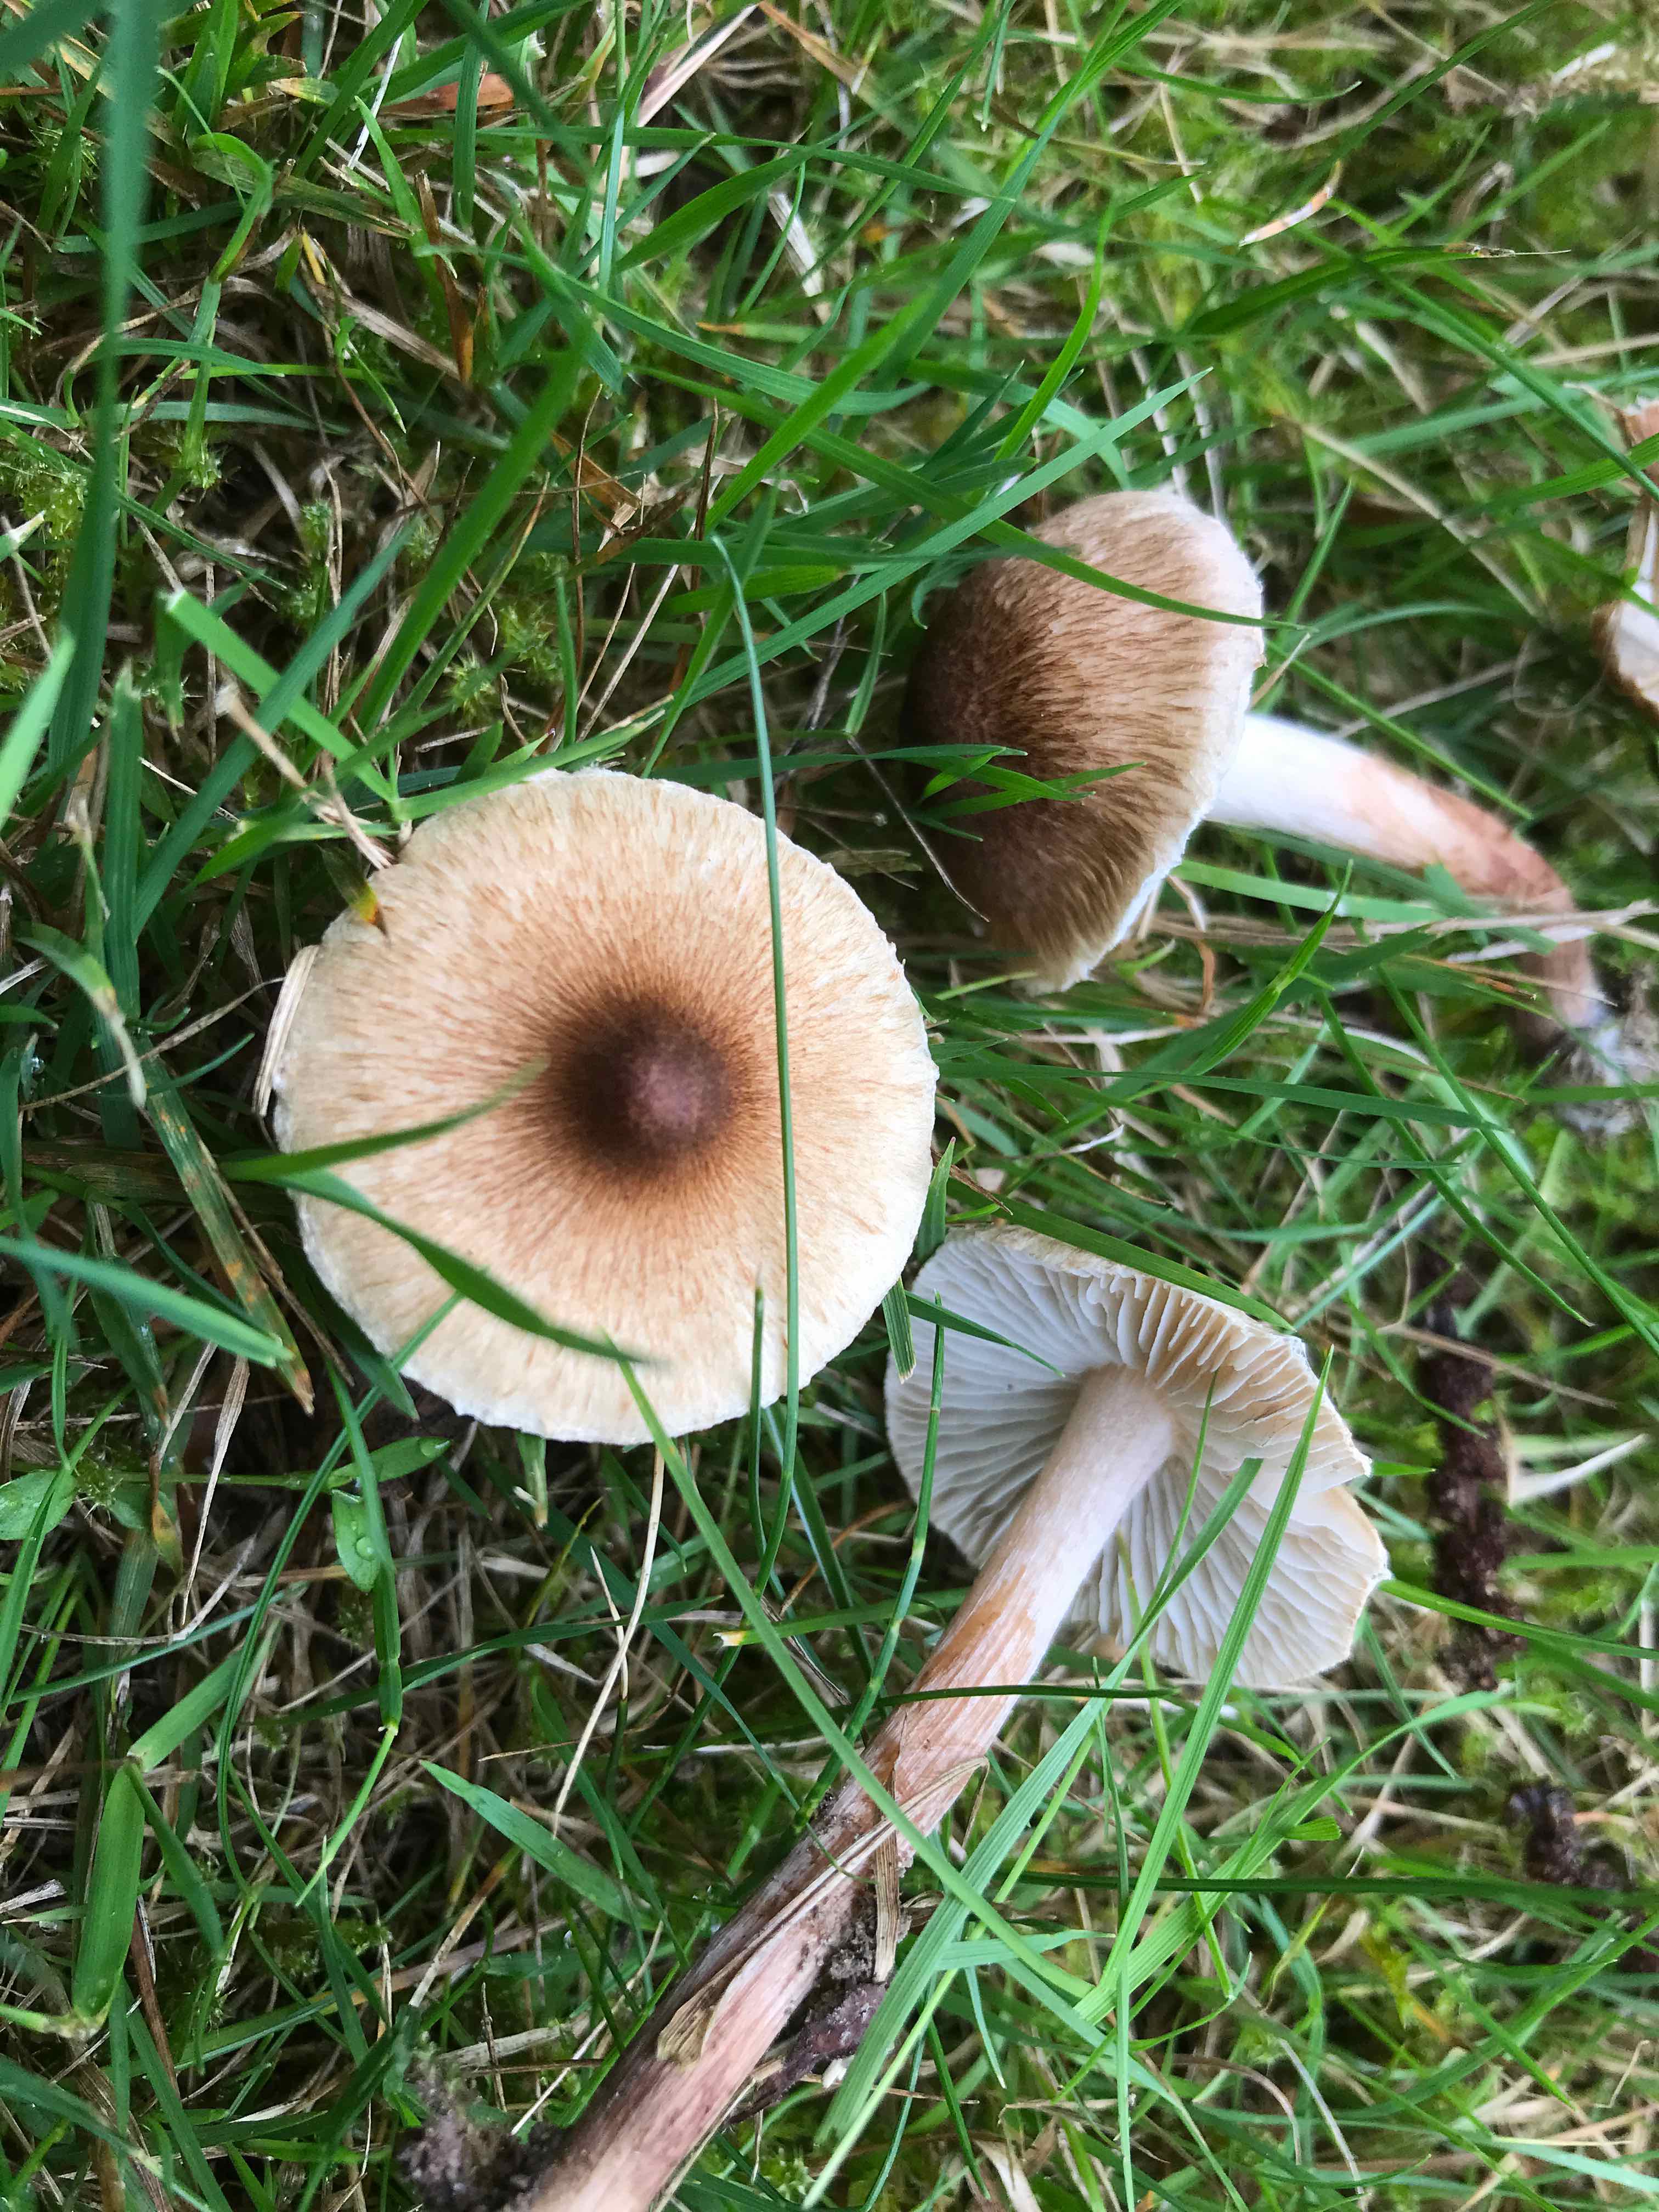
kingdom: Fungi
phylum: Basidiomycota
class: Agaricomycetes
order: Agaricales
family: Inocybaceae
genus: Inocybe
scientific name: Inocybe curvipes
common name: plæne-trævlhat
